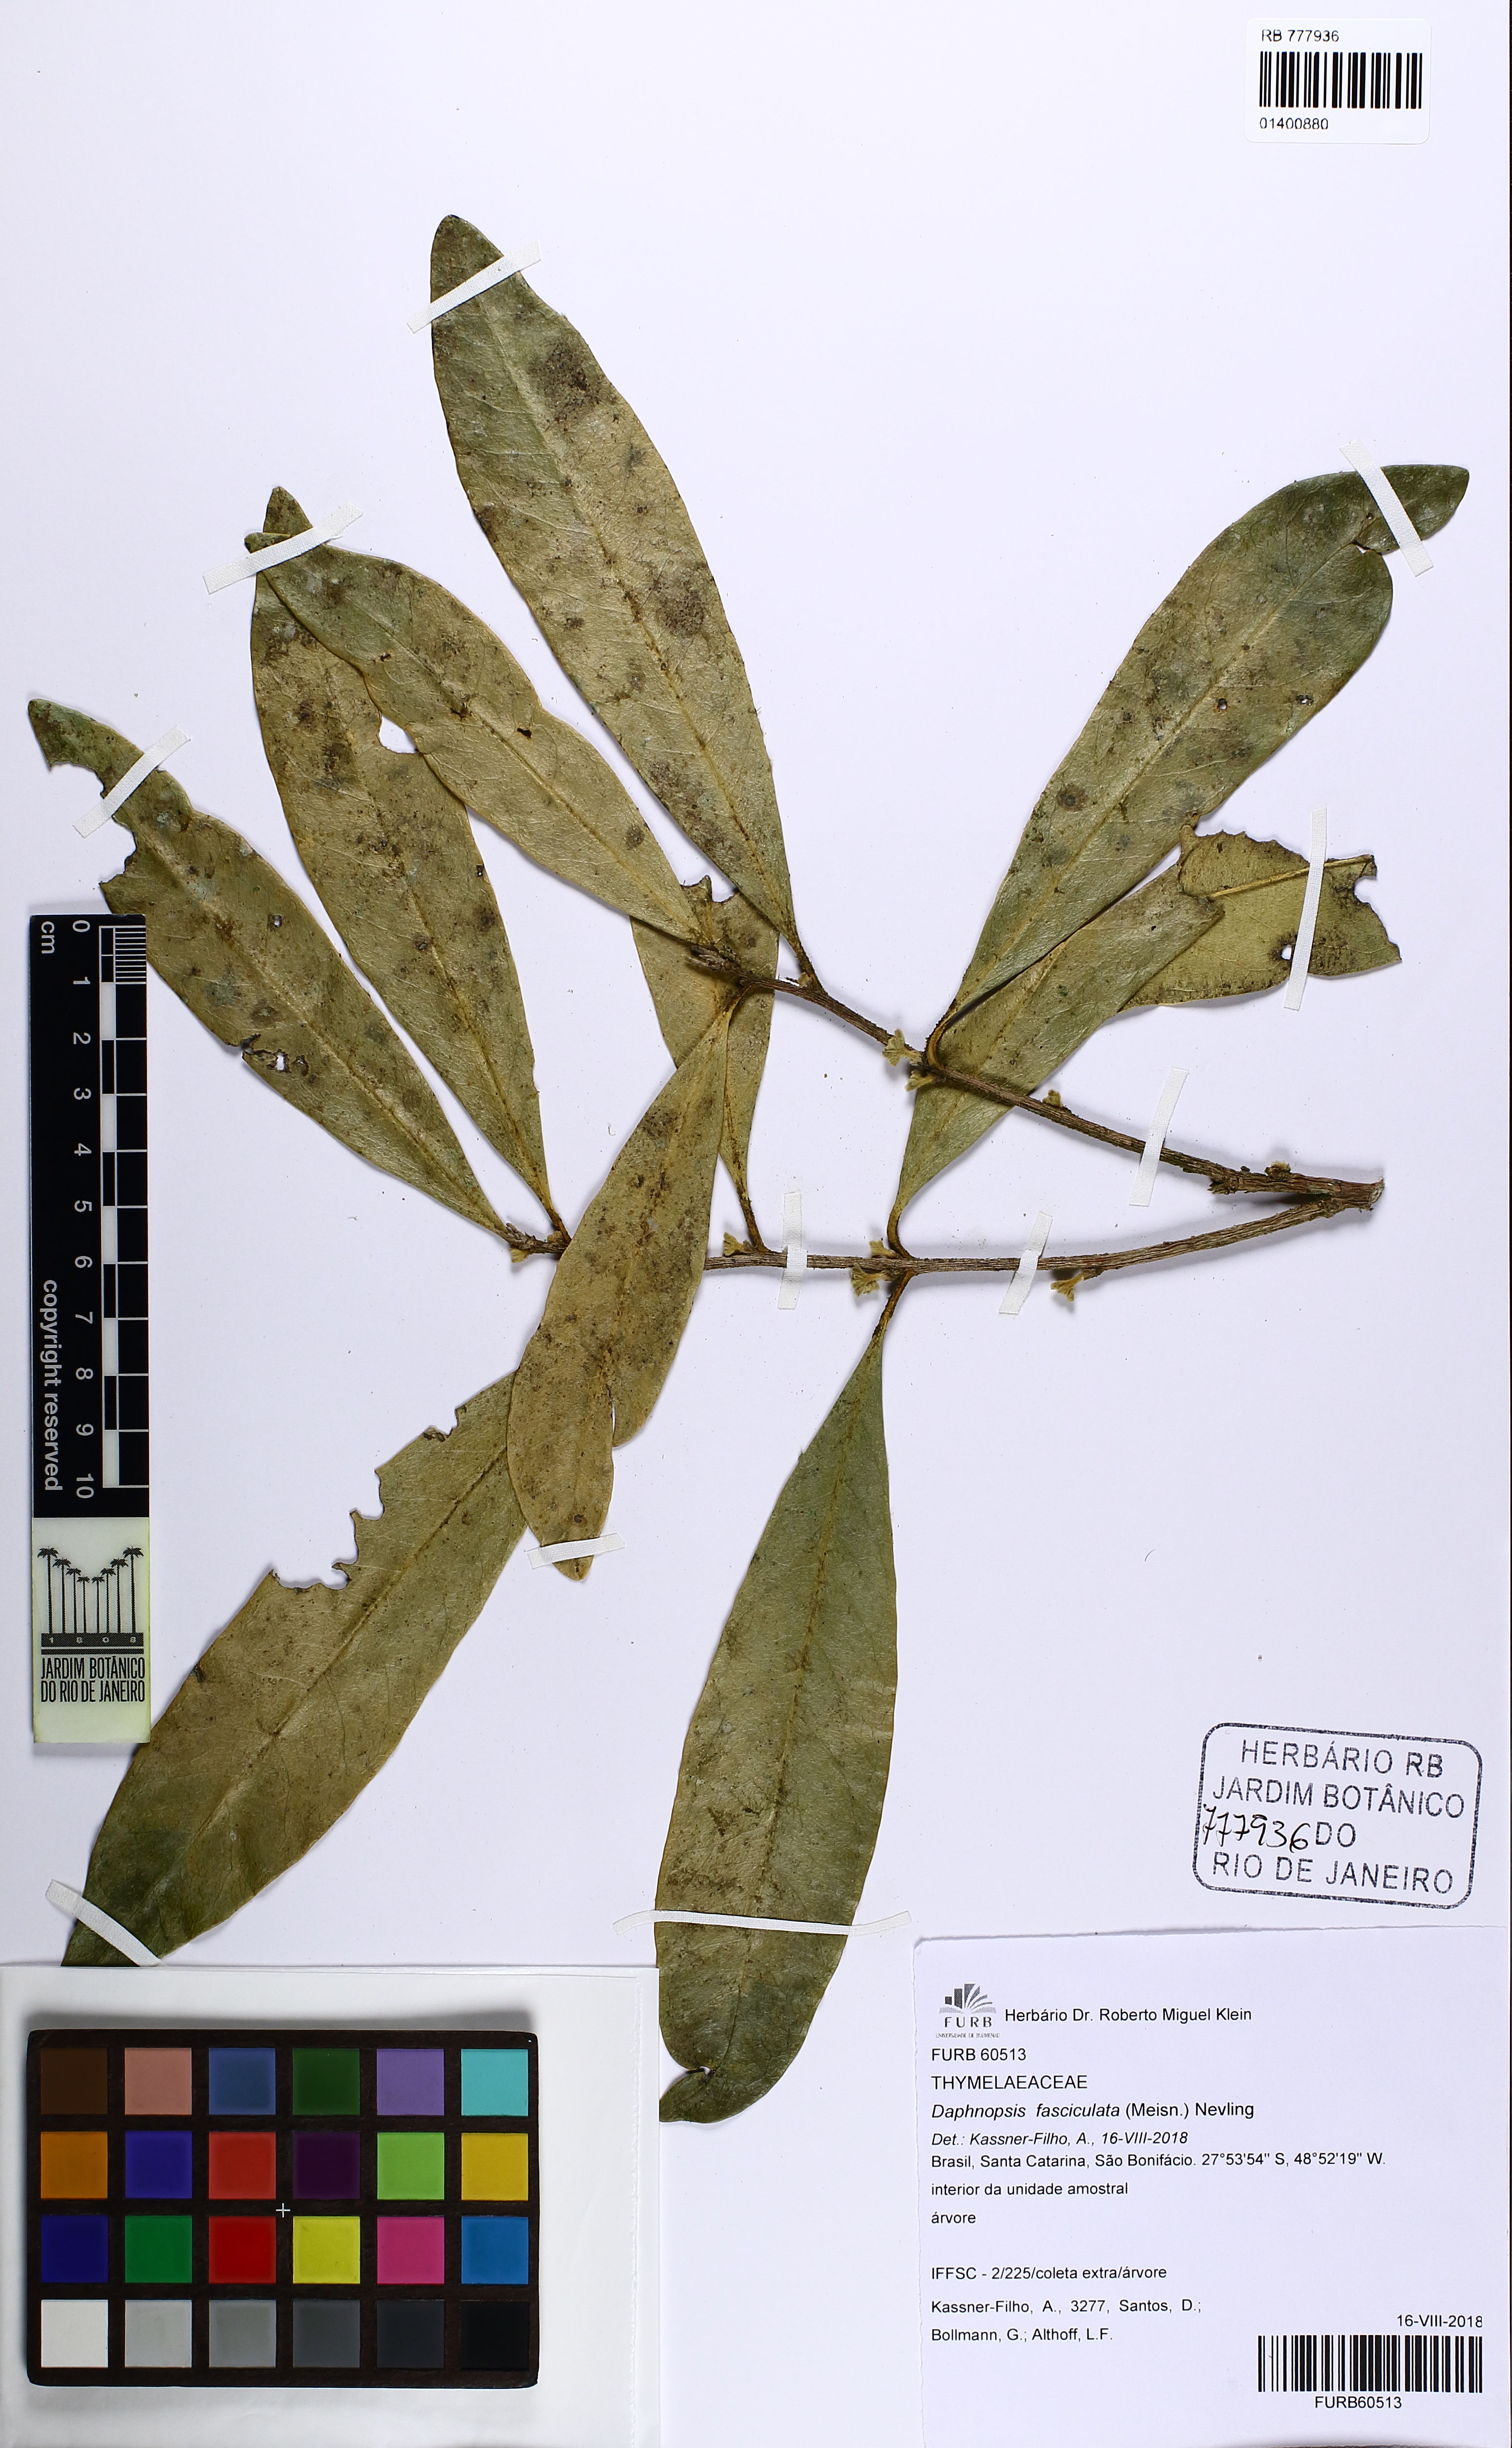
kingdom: Plantae
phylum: Tracheophyta
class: Magnoliopsida
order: Malvales
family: Thymelaeaceae
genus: Daphnopsis
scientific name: Daphnopsis fasciculata
